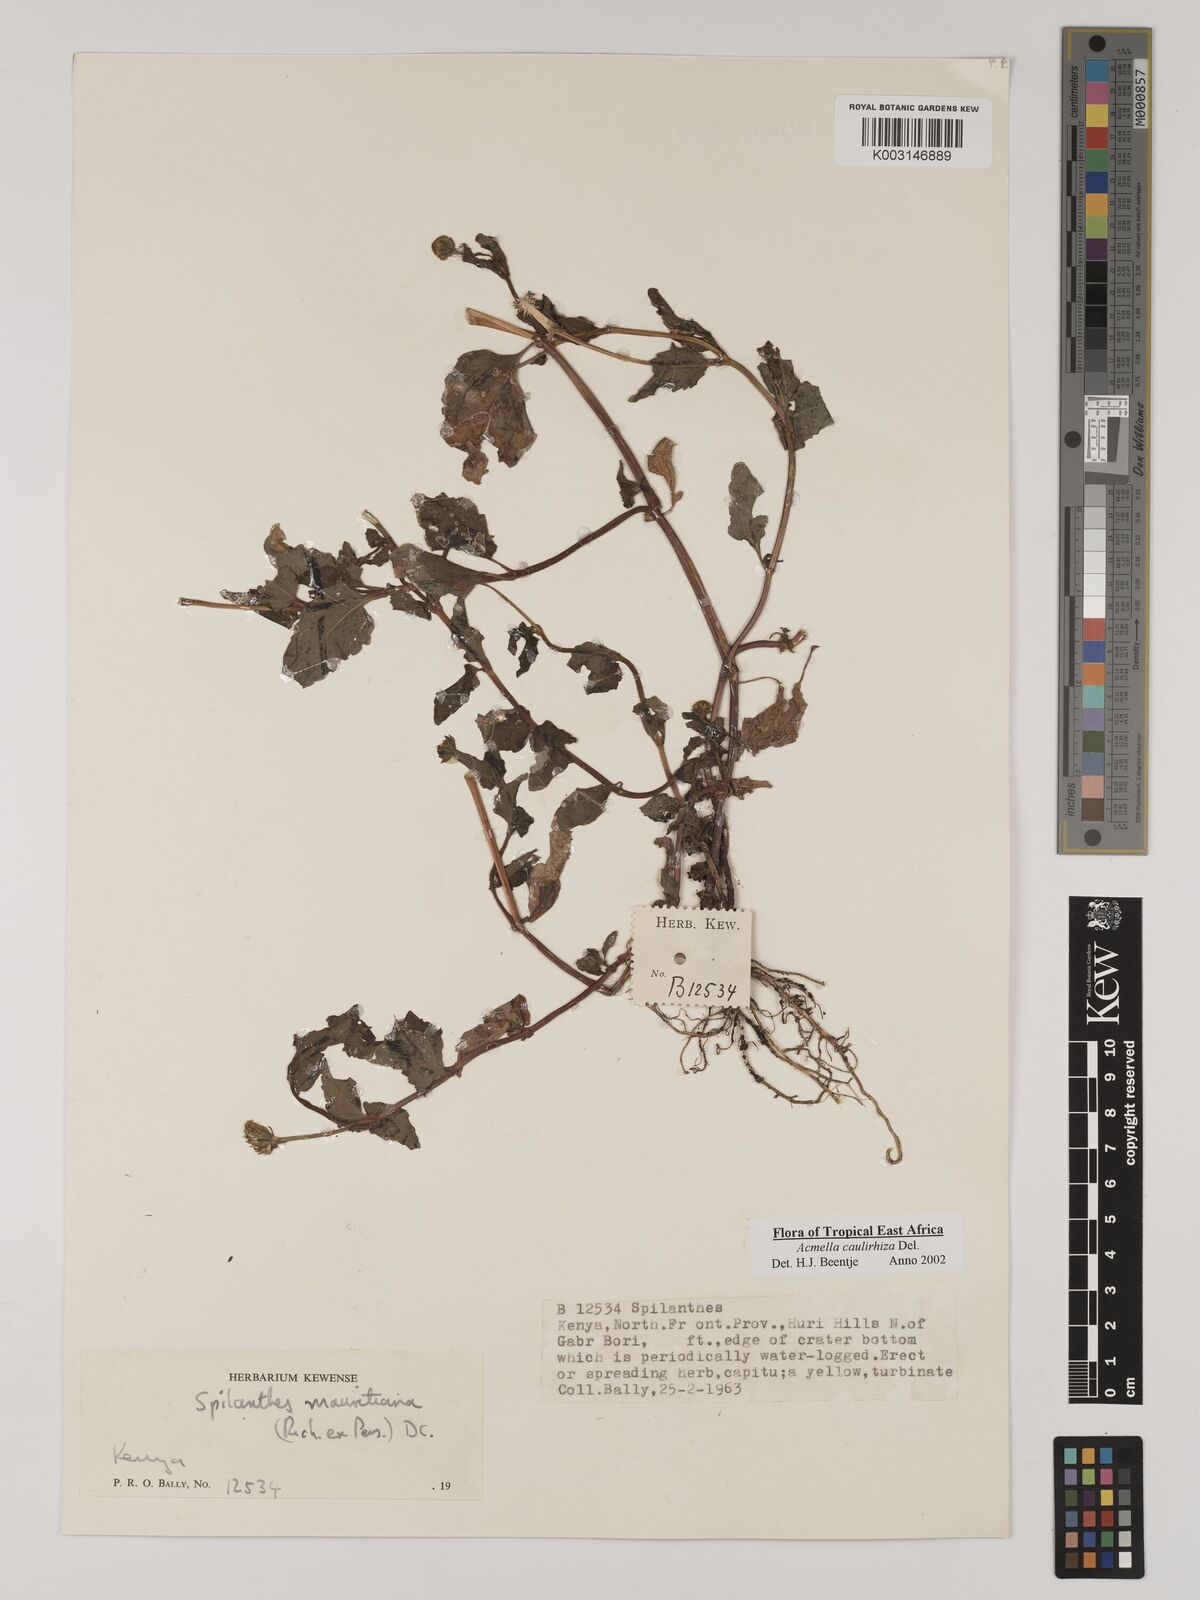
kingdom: Plantae
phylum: Tracheophyta
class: Magnoliopsida
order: Asterales
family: Asteraceae
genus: Acmella
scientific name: Acmella caulirhiza
